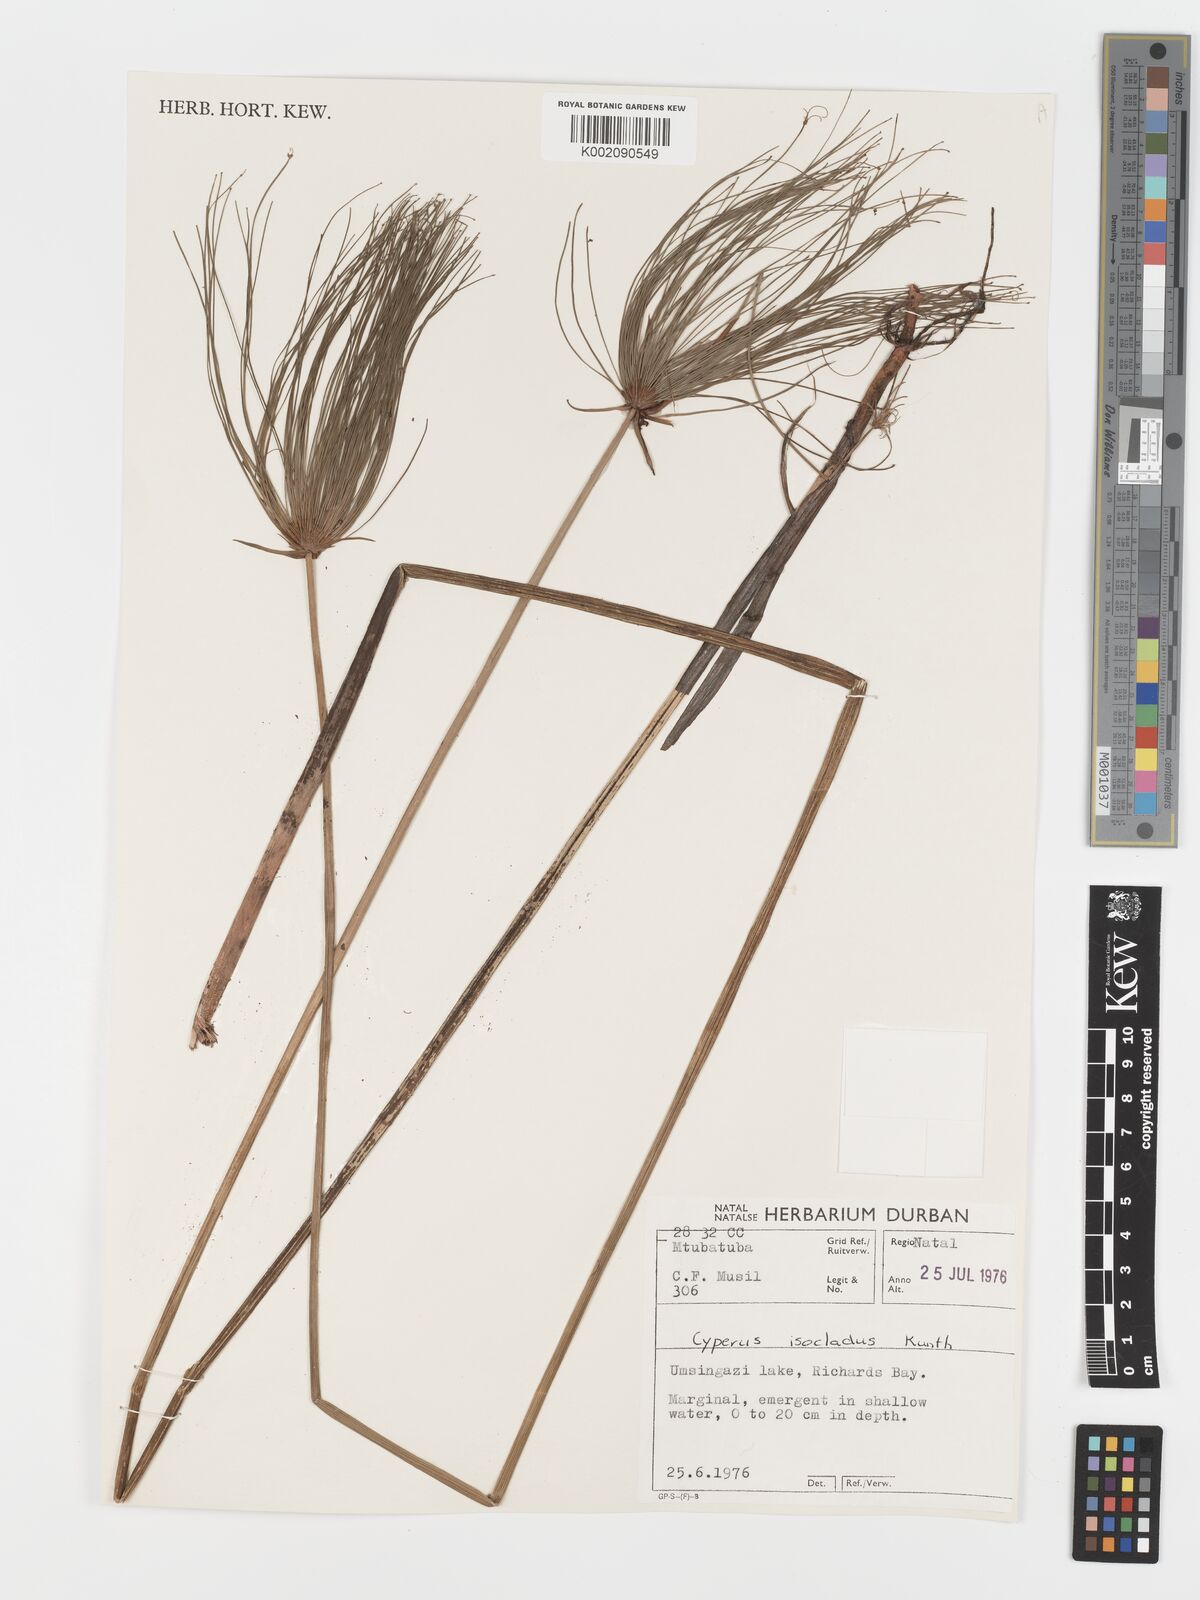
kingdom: Plantae
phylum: Tracheophyta
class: Liliopsida
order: Poales
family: Cyperaceae
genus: Cyperus
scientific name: Cyperus prolifer
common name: Miniature flatsedge
